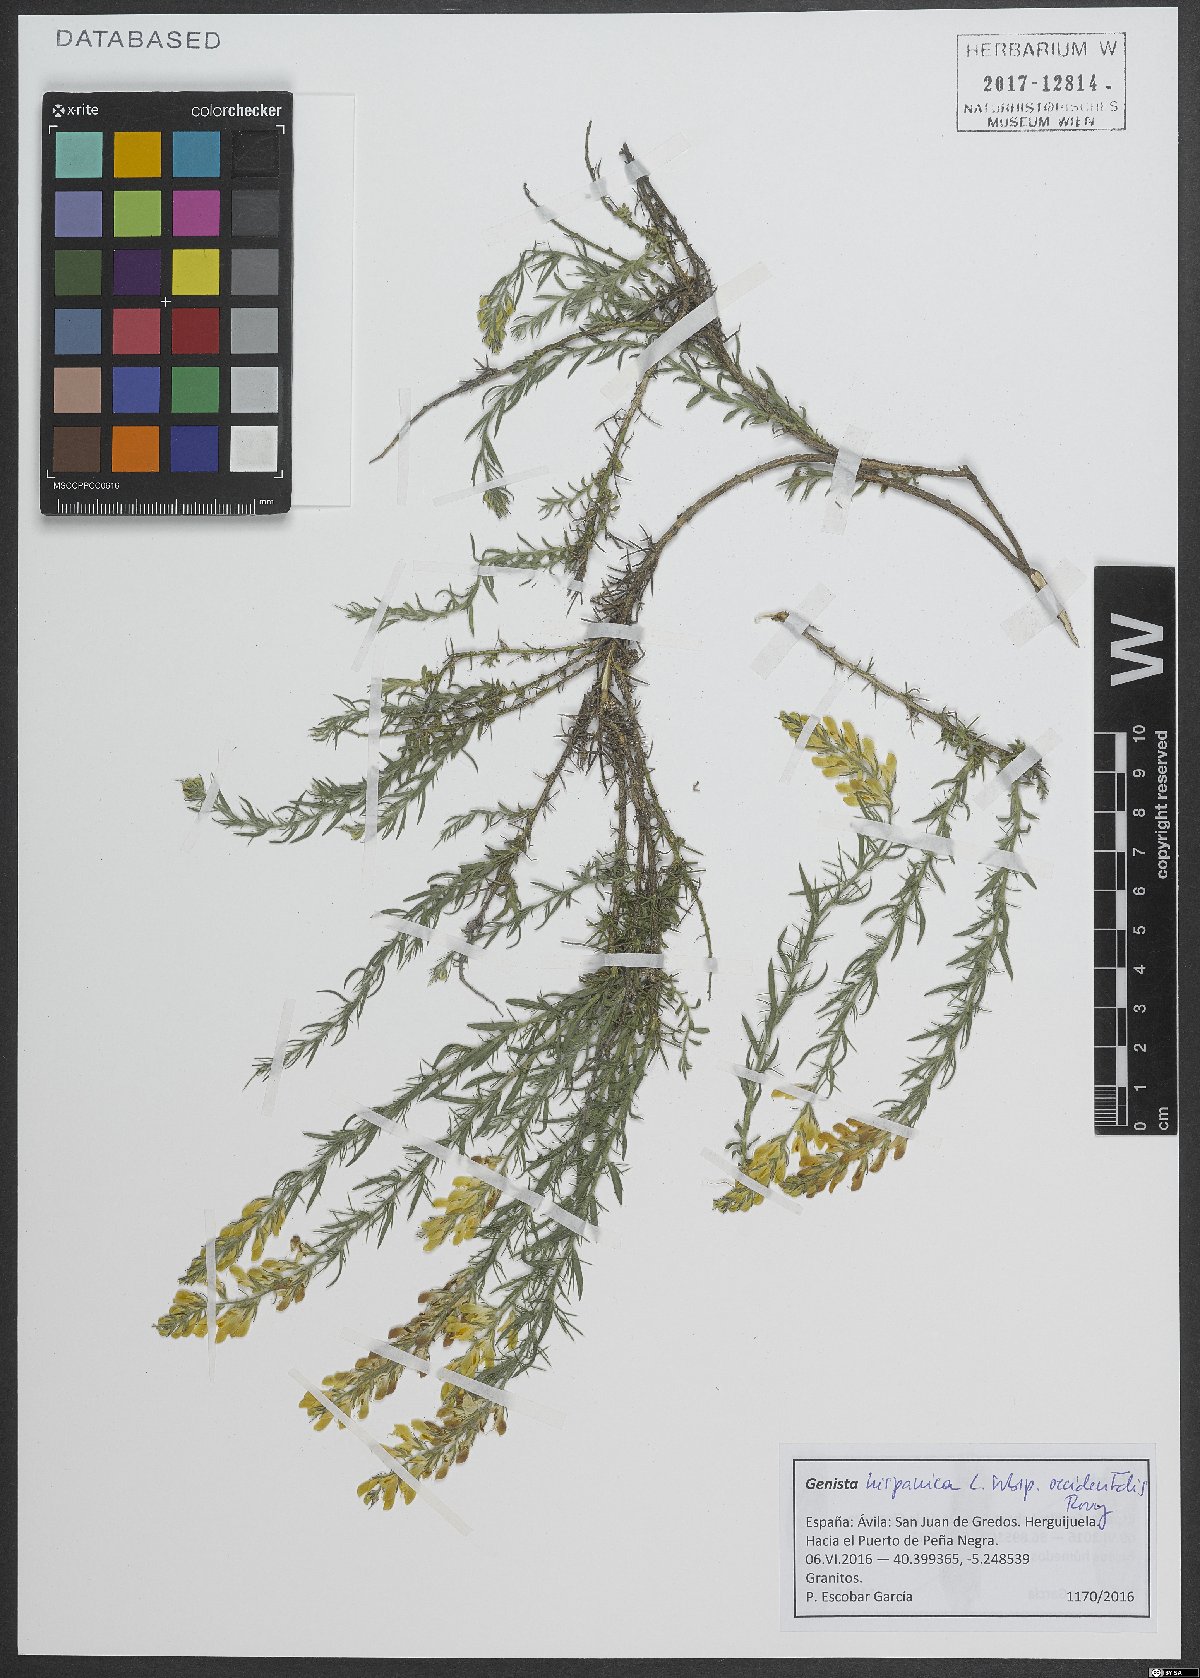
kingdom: Plantae
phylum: Tracheophyta
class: Magnoliopsida
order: Fabales
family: Fabaceae
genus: Genista
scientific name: Genista hispanica
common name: Spanish gorse
